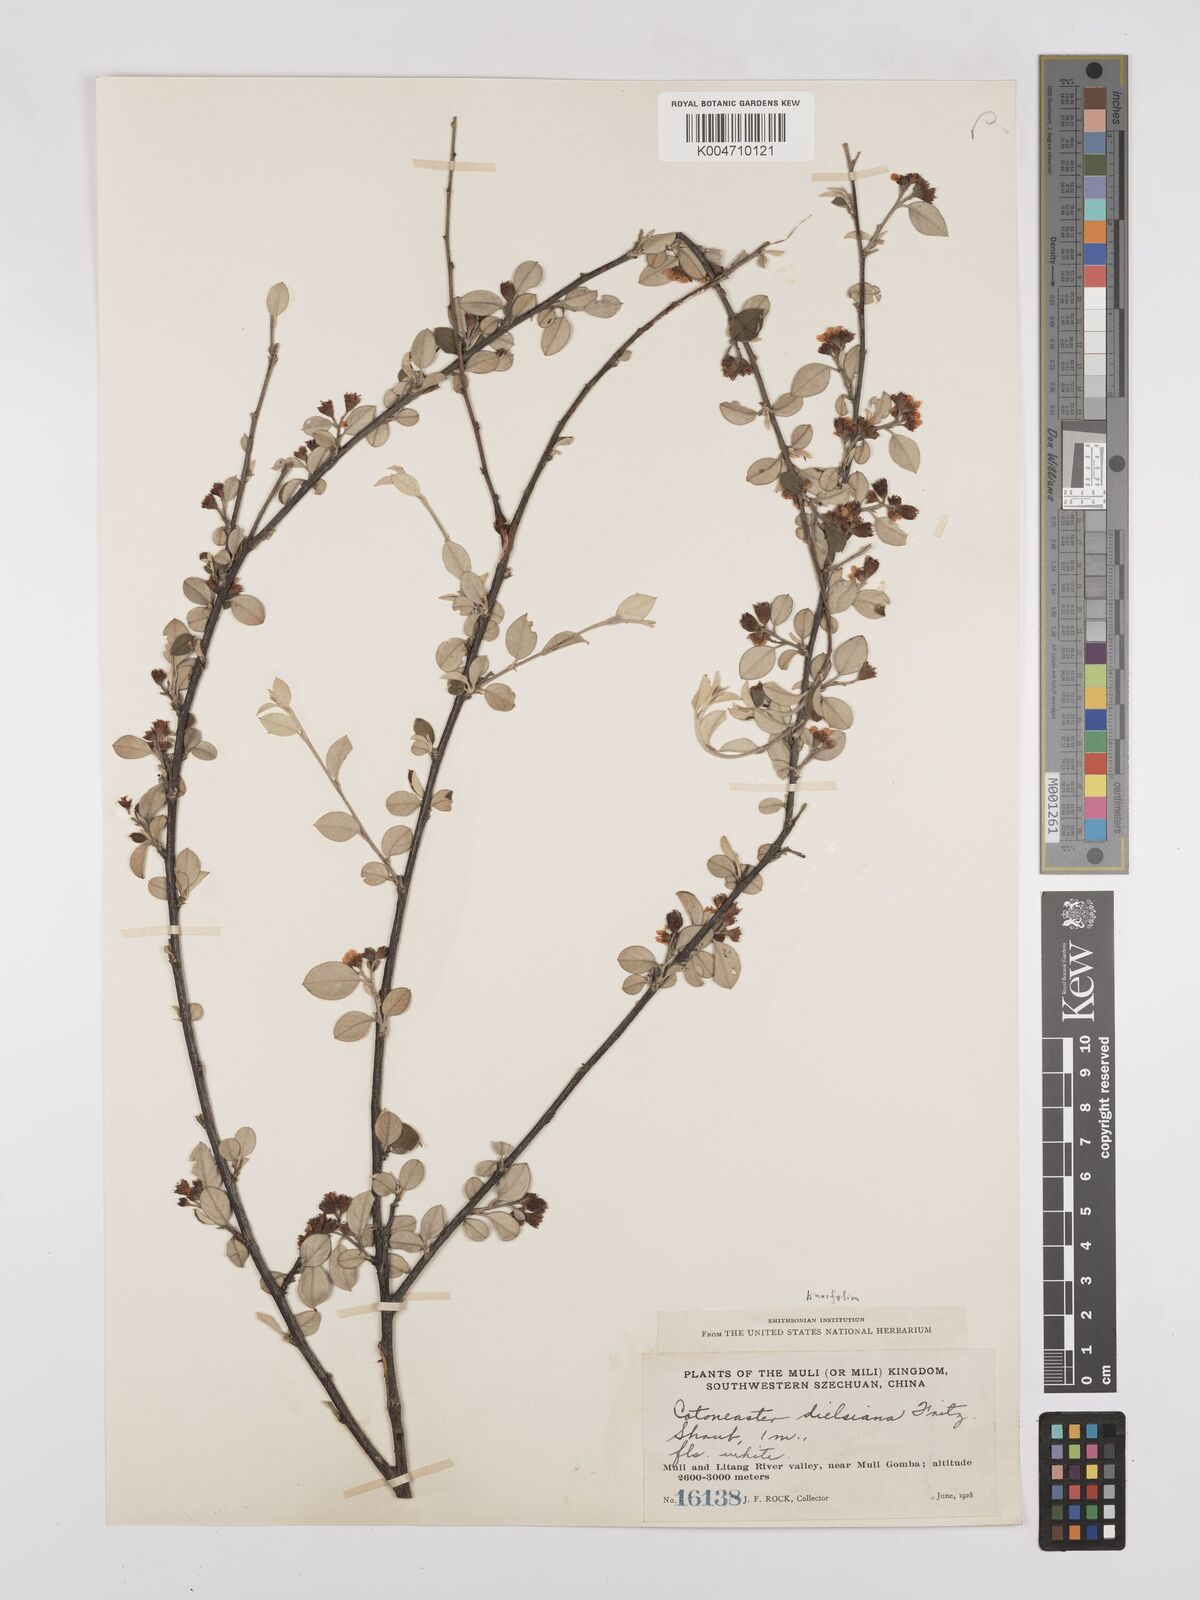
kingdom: Plantae
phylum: Tracheophyta
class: Magnoliopsida
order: Rosales
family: Rosaceae
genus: Cotoneaster
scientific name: Cotoneaster dielsianus
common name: Diels's cotoneaster
